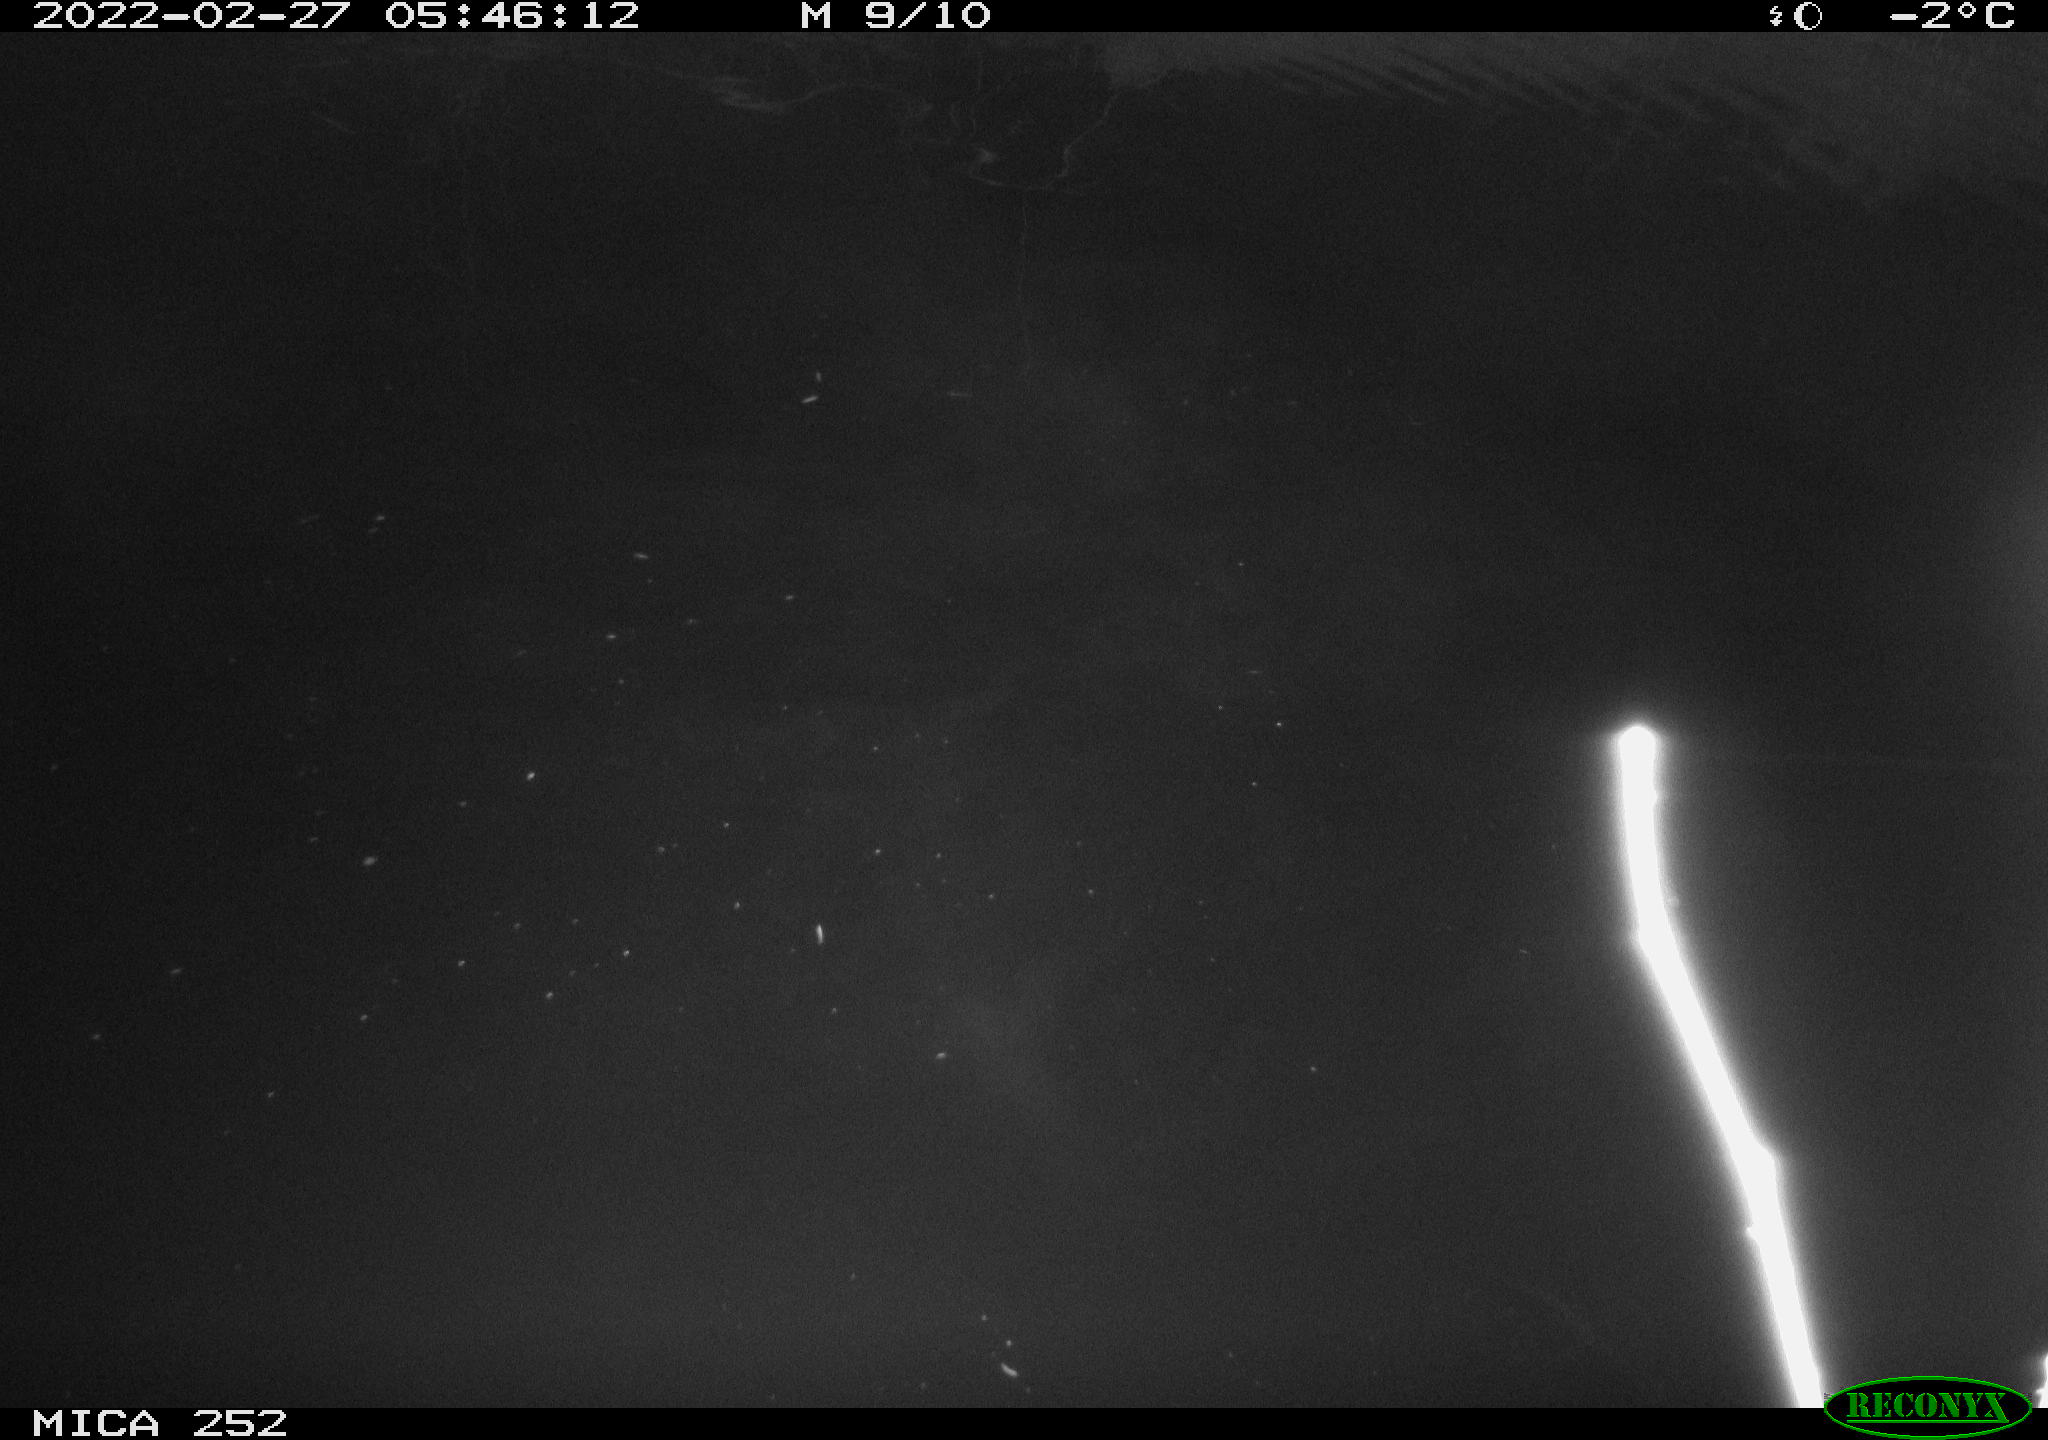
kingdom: Animalia
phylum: Chordata
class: Mammalia
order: Rodentia
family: Castoridae
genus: Castor
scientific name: Castor fiber
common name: Eurasian beaver
